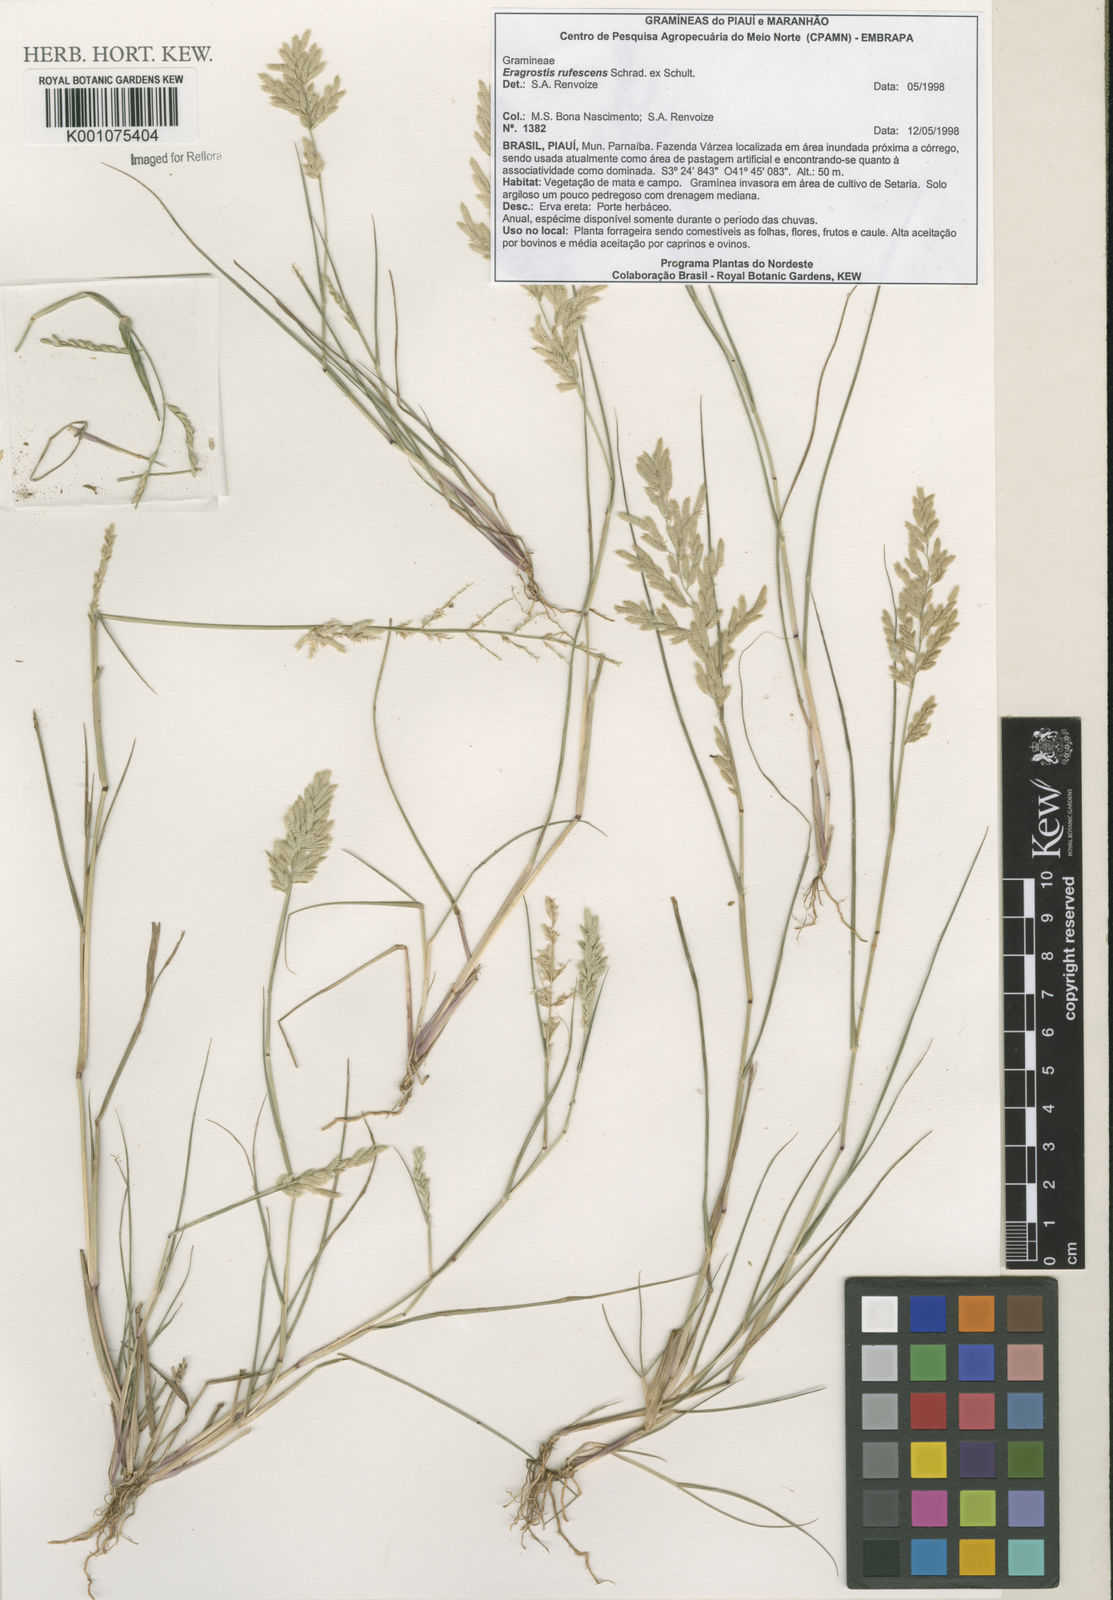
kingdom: Plantae
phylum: Tracheophyta
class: Liliopsida
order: Poales
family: Poaceae
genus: Eragrostis
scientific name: Eragrostis rufescens
